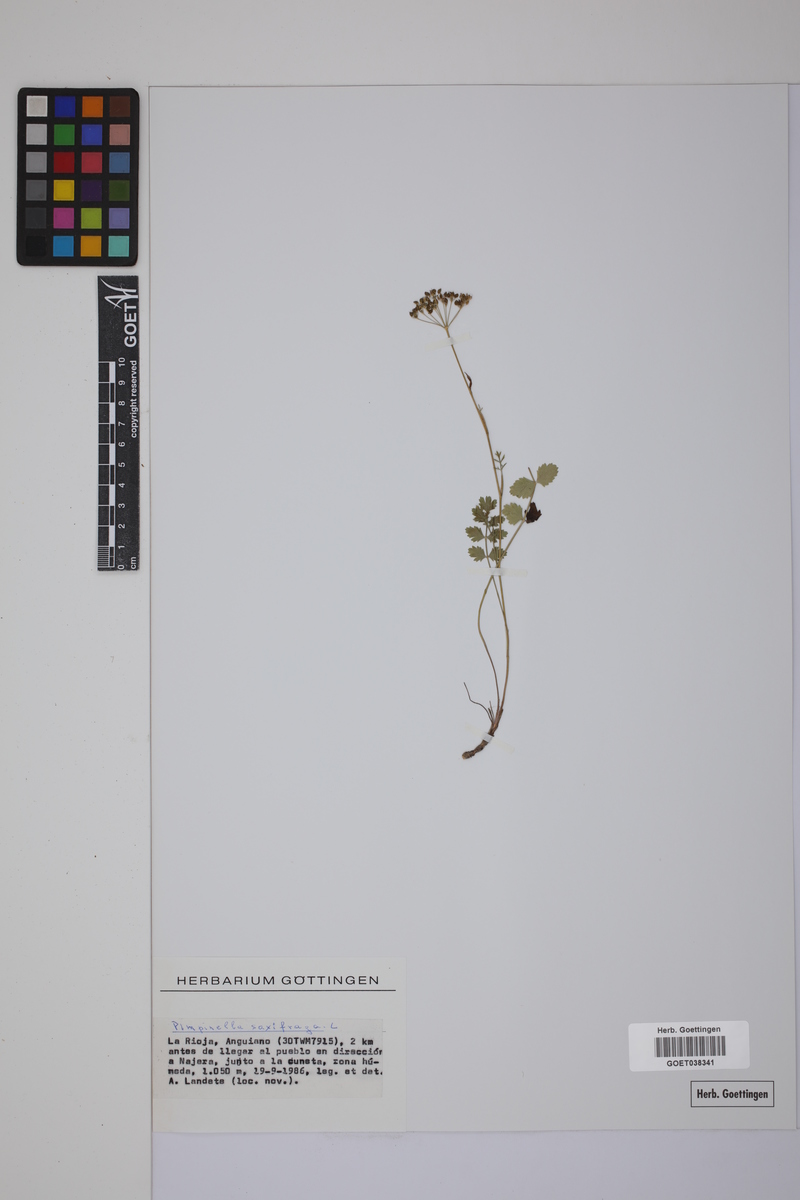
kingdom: Plantae
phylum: Tracheophyta
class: Magnoliopsida
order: Apiales
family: Apiaceae
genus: Pimpinella
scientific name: Pimpinella saxifraga
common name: Burnet-saxifrage
